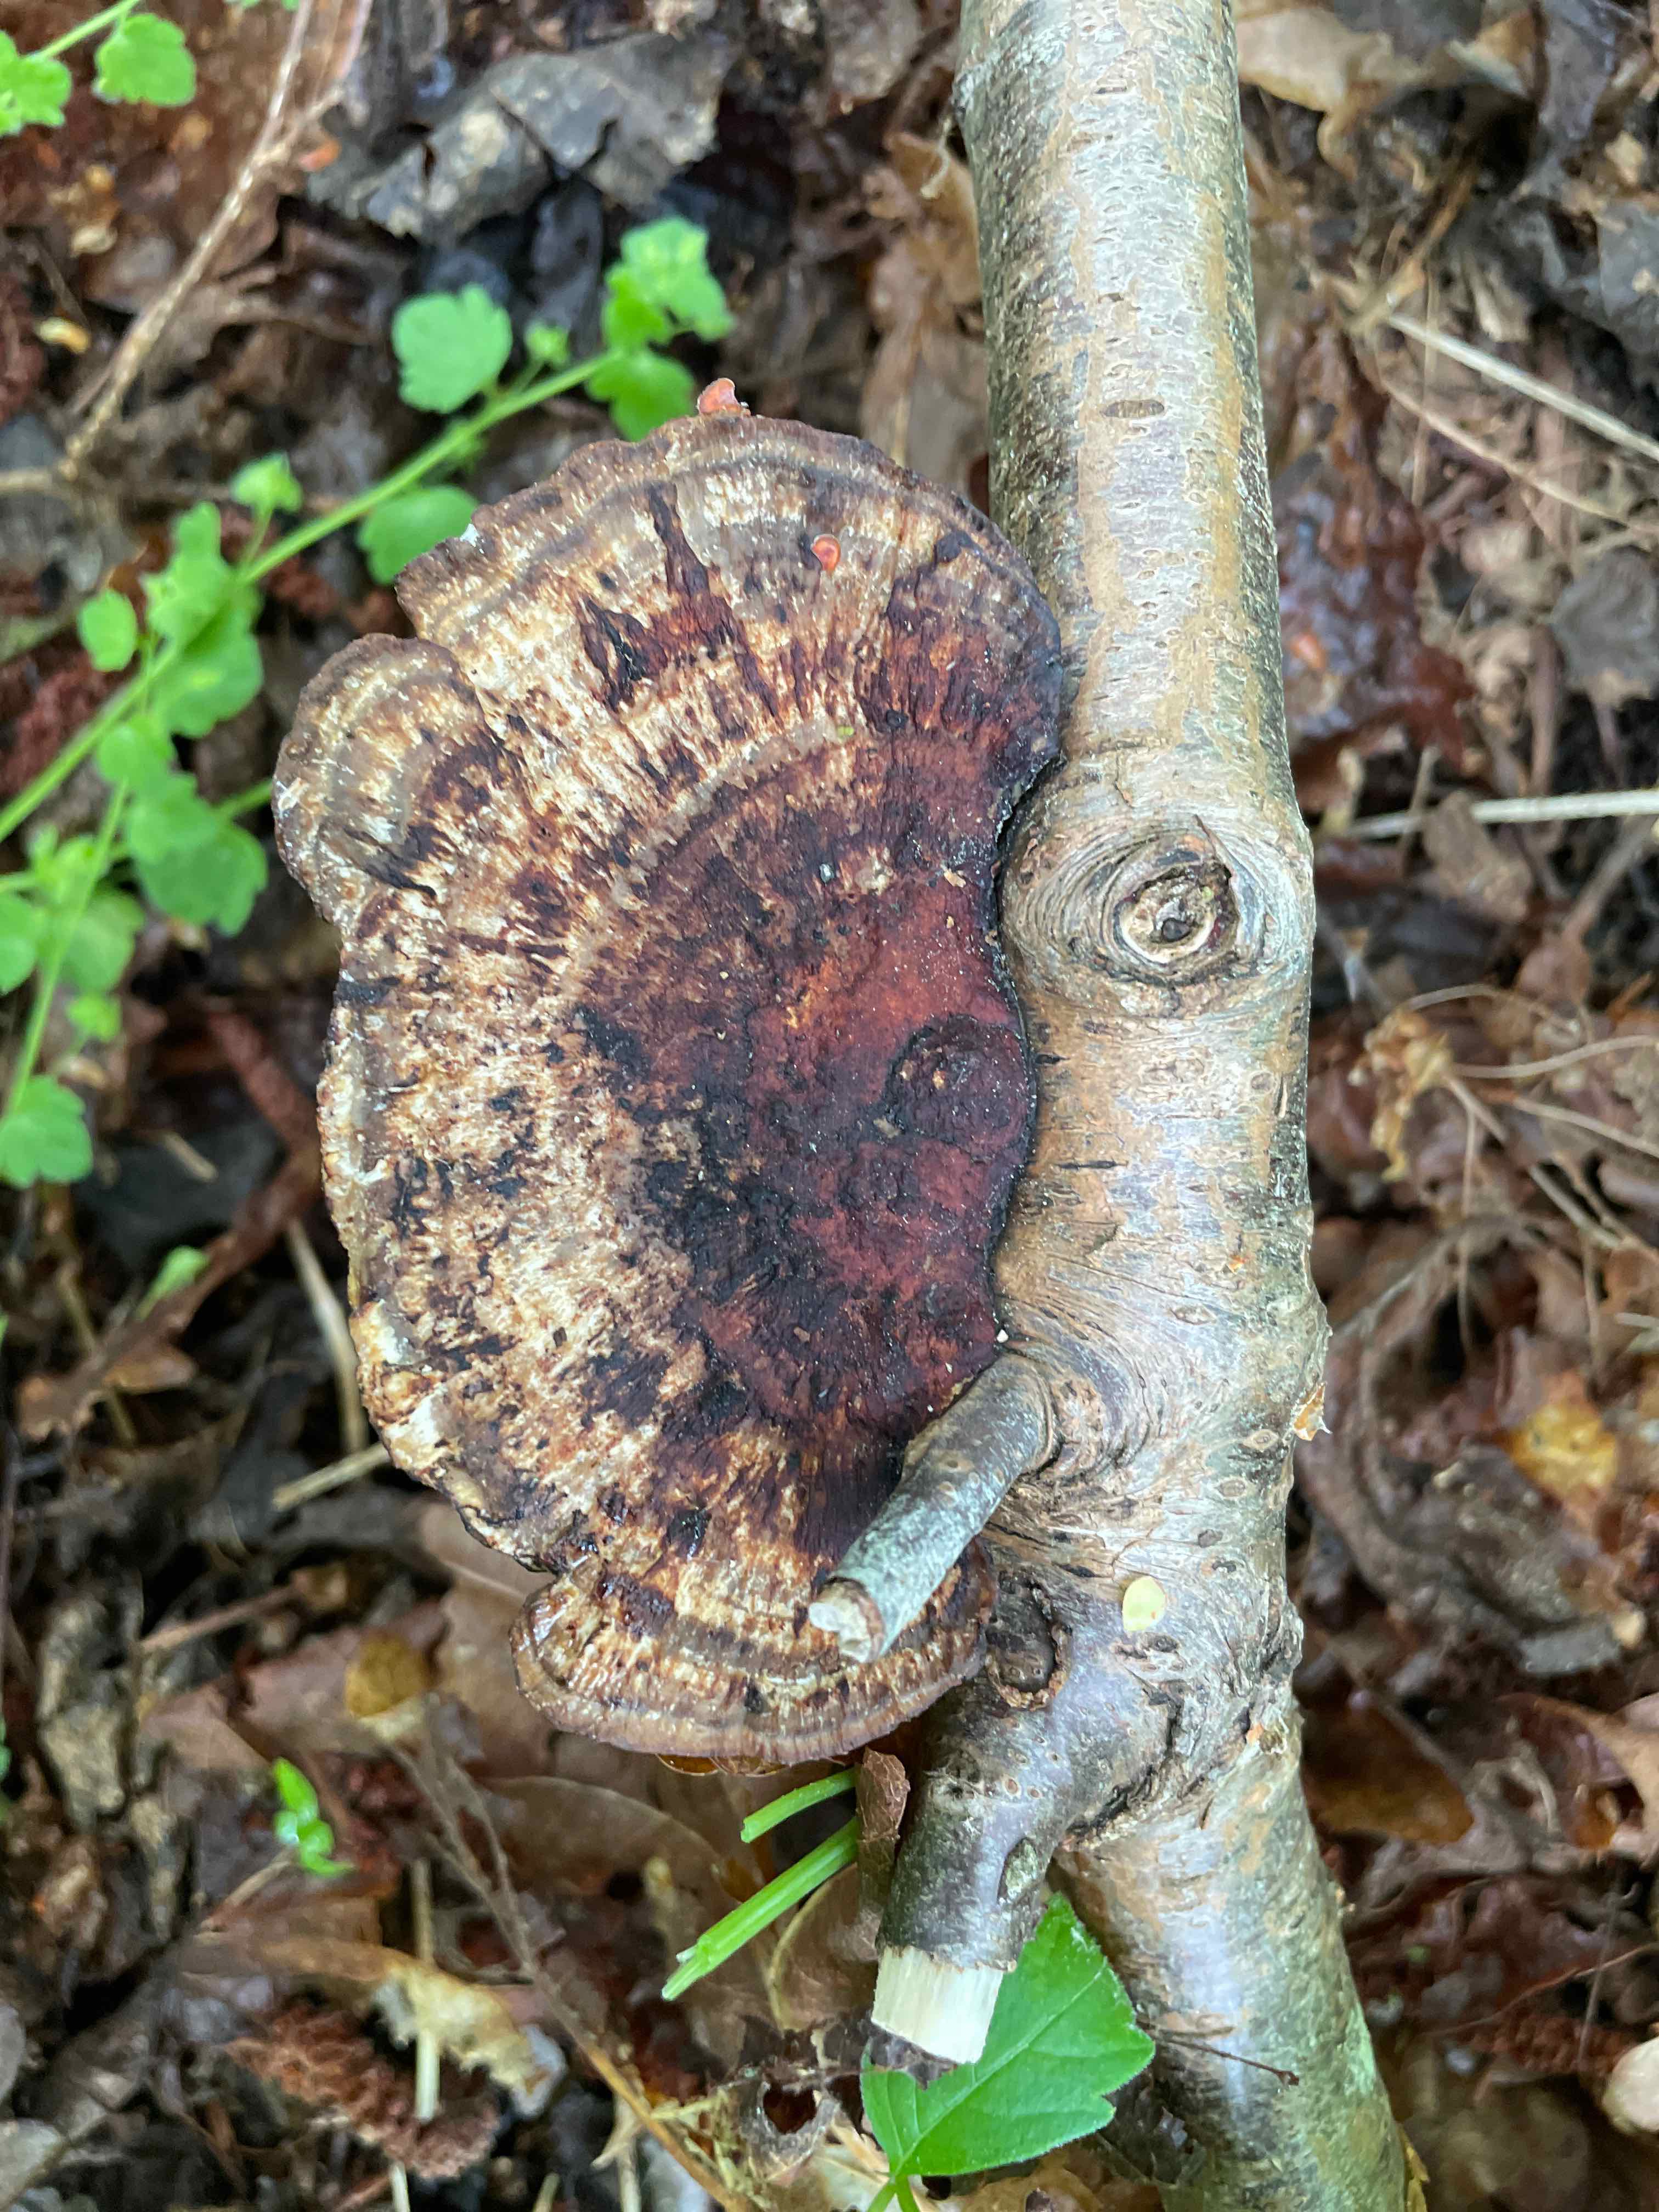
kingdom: Fungi
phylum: Basidiomycota
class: Agaricomycetes
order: Polyporales
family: Polyporaceae
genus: Daedaleopsis
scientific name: Daedaleopsis confragosa
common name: rødmende læderporesvamp
